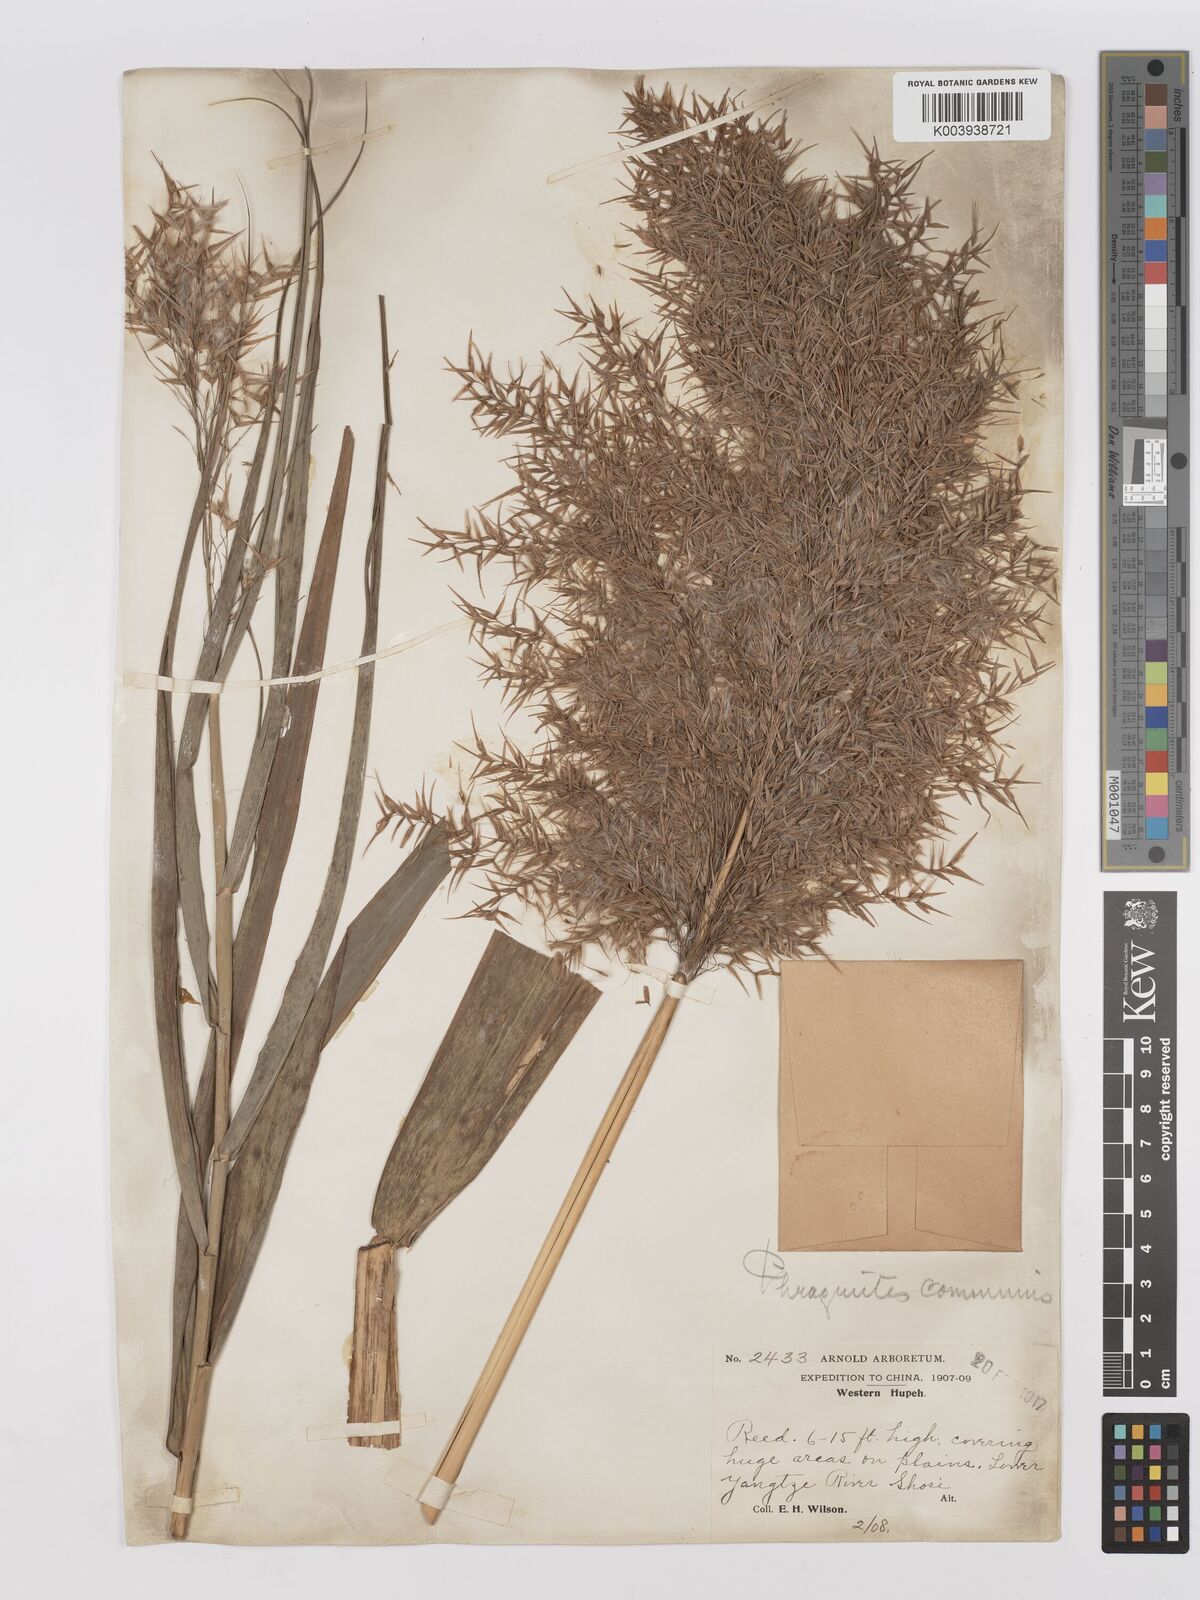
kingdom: Plantae
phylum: Tracheophyta
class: Liliopsida
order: Poales
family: Poaceae
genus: Phragmites
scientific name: Phragmites australis
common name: Common reed
